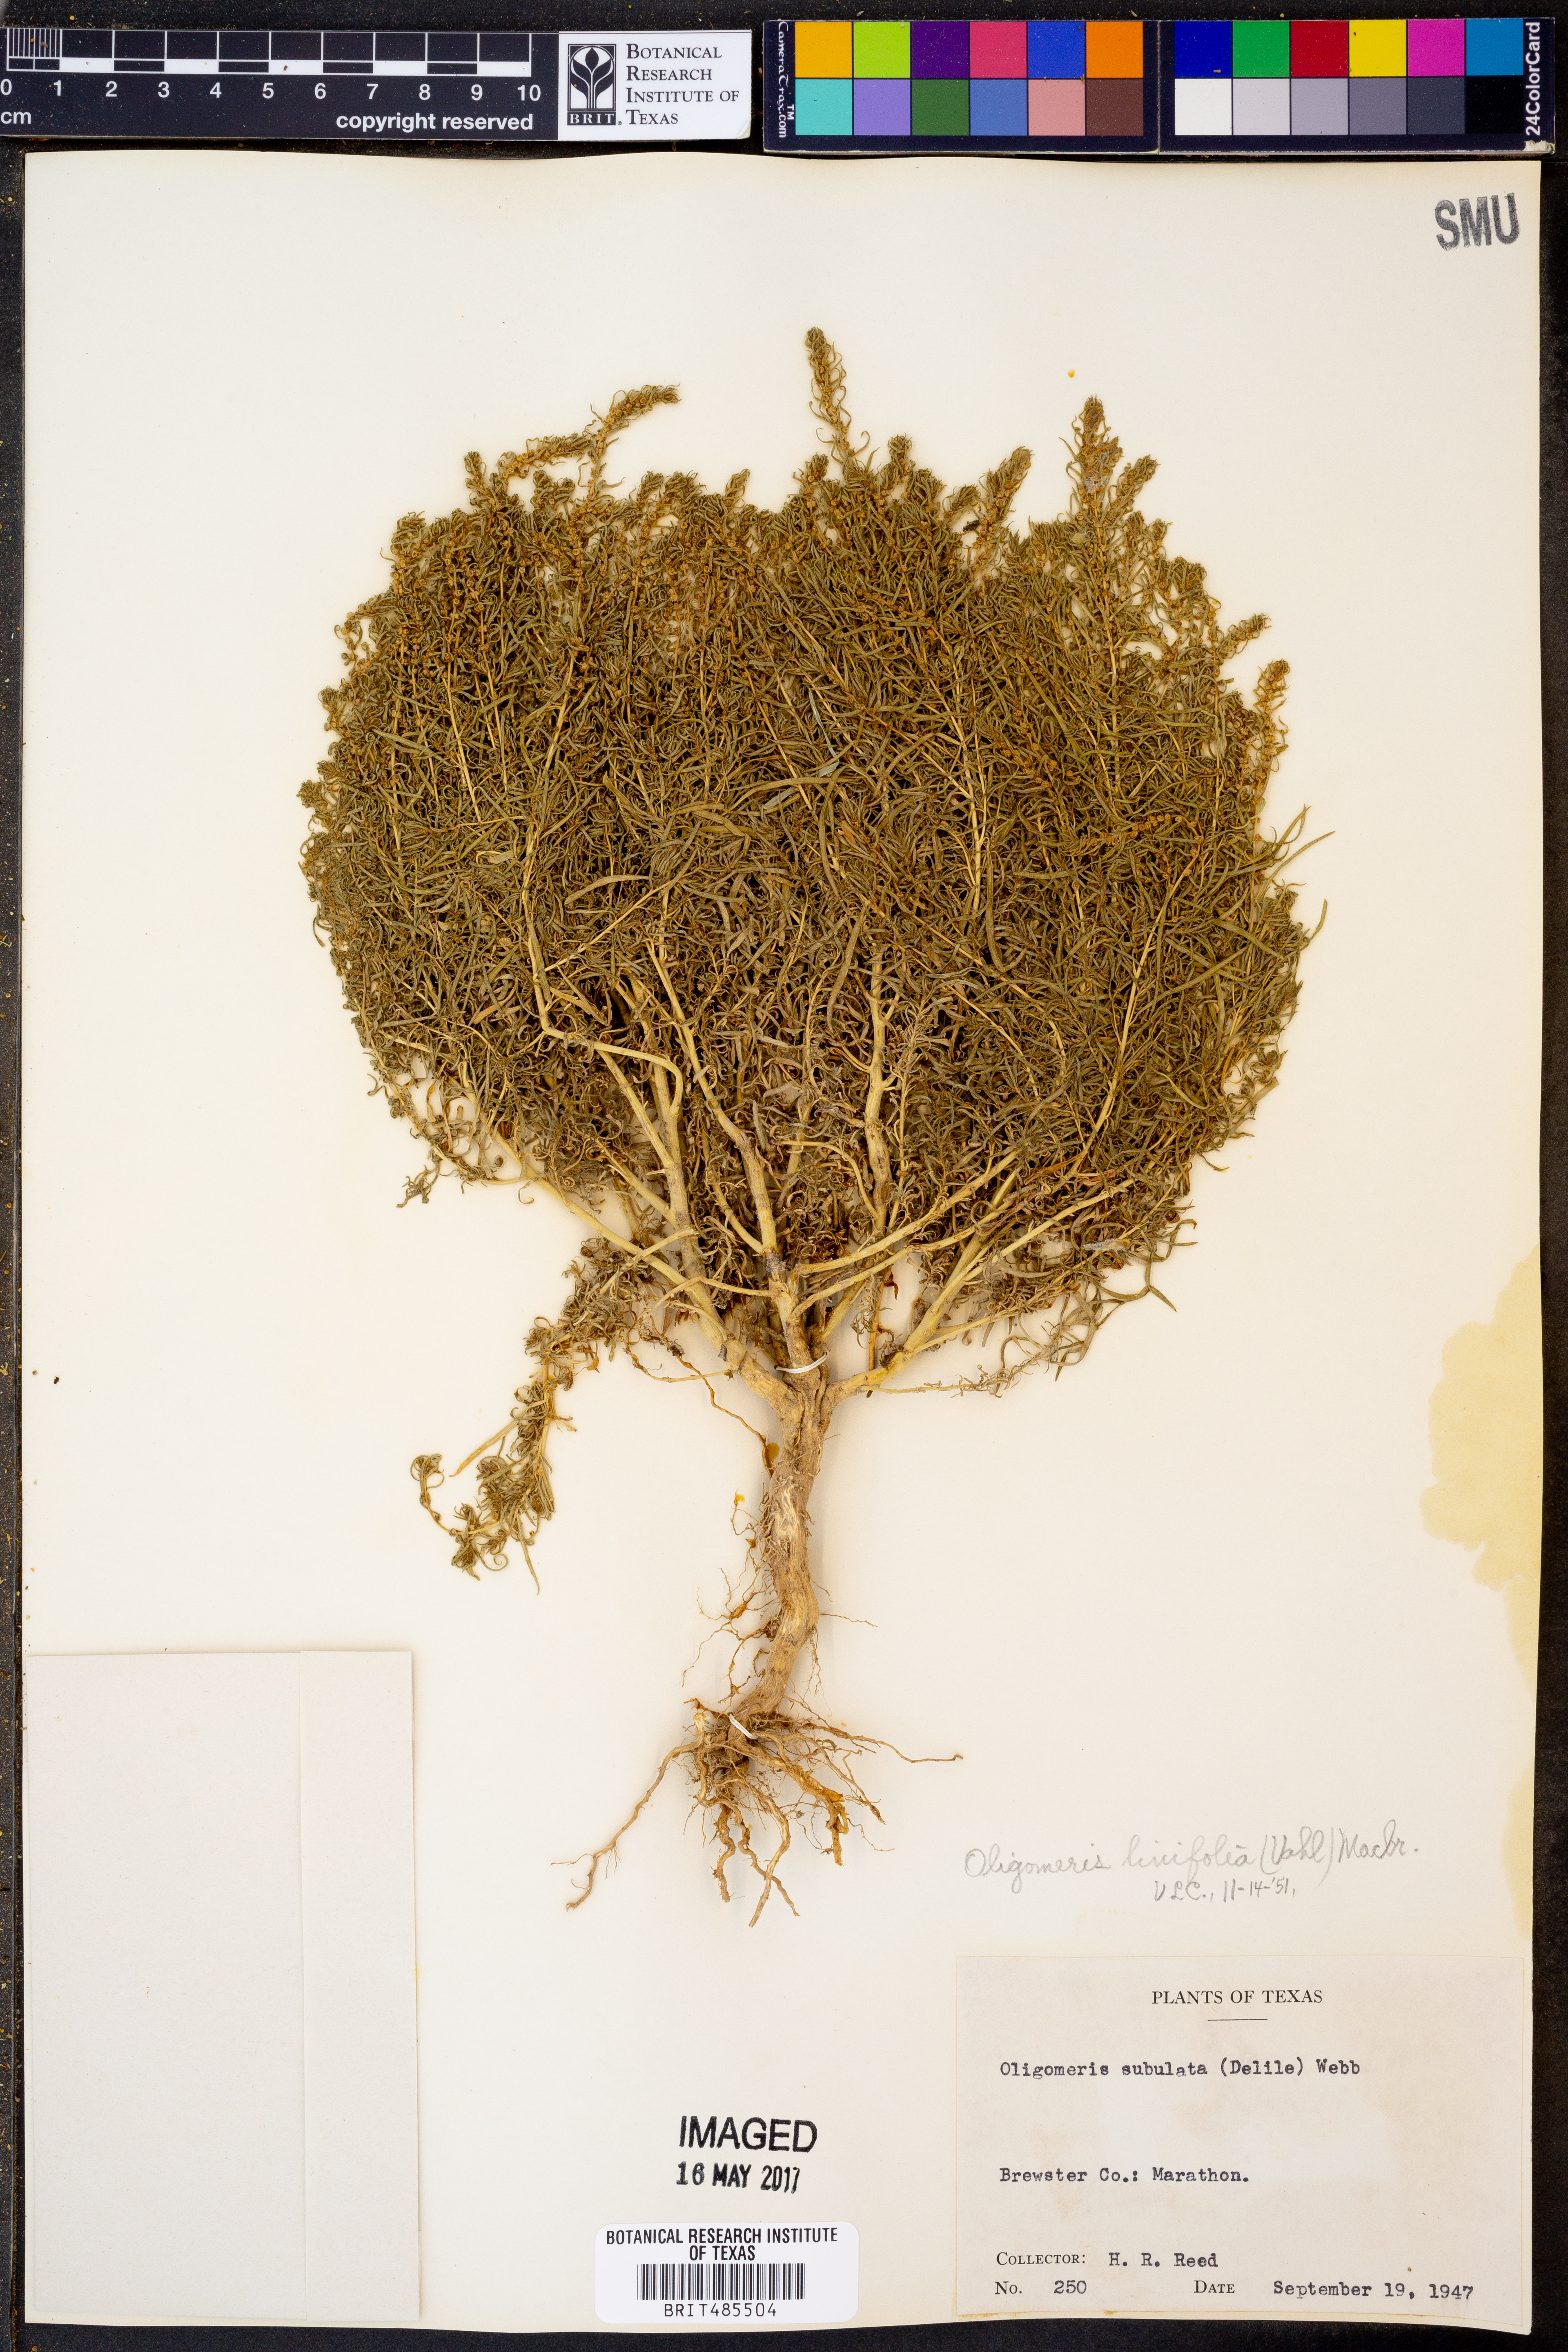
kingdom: Plantae
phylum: Tracheophyta
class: Magnoliopsida
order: Brassicales
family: Resedaceae
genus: Oligomeris
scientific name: Oligomeris linifolia
